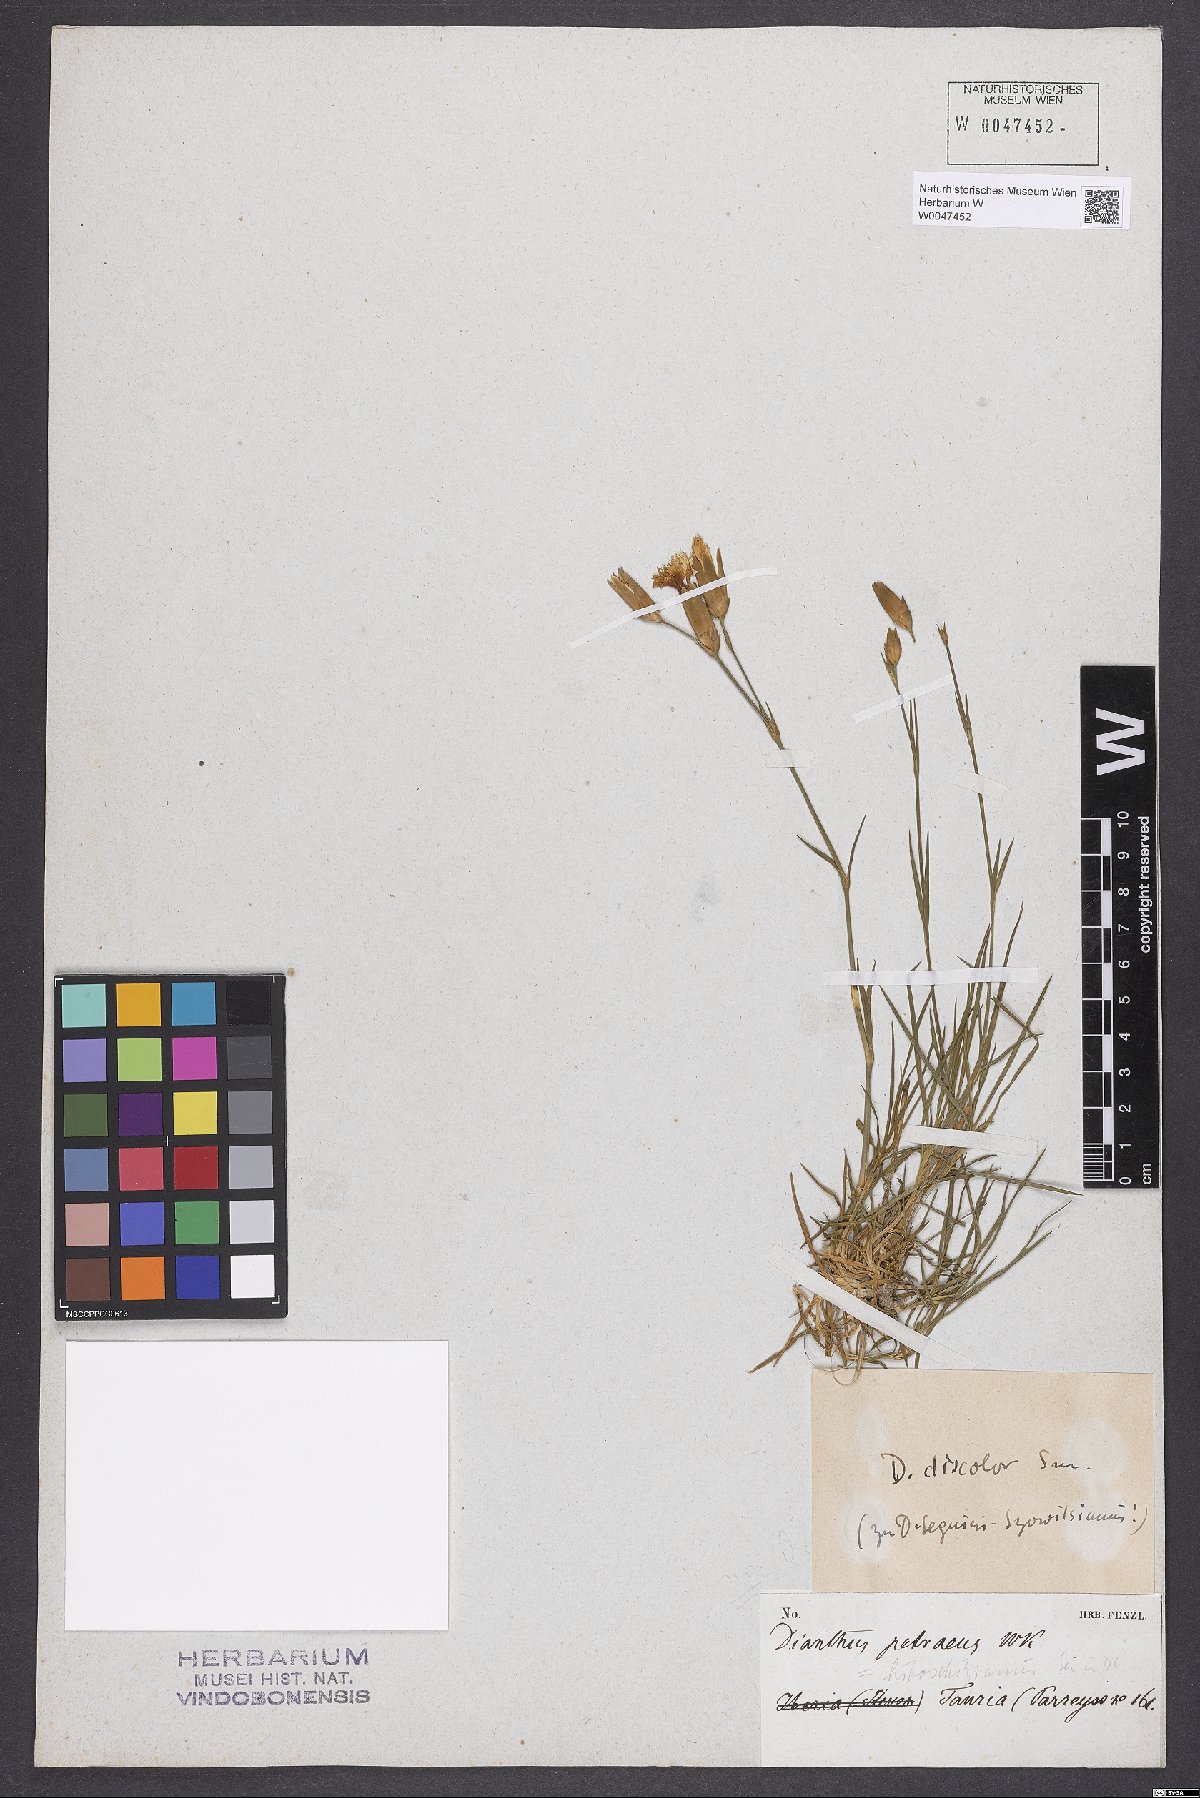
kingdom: Plantae
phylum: Tracheophyta
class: Magnoliopsida
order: Caryophyllales
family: Caryophyllaceae
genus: Dianthus
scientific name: Dianthus caucaseus
